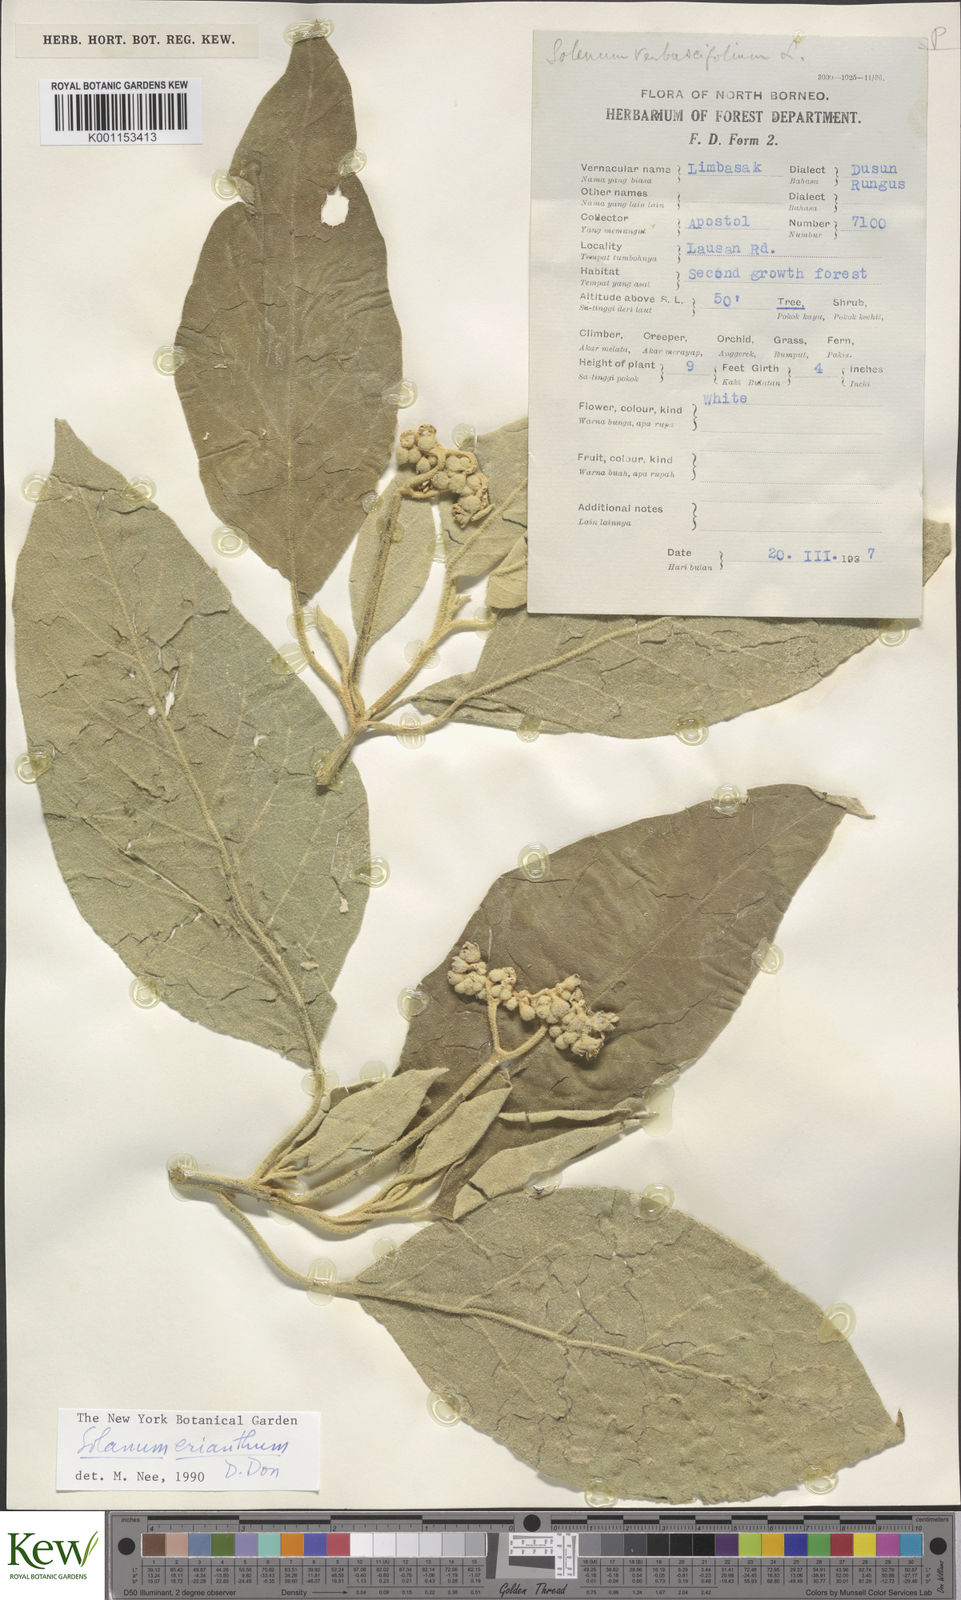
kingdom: Plantae
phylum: Tracheophyta
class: Magnoliopsida
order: Solanales
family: Solanaceae
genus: Solanum
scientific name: Solanum erianthum
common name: Tobacco-tree
